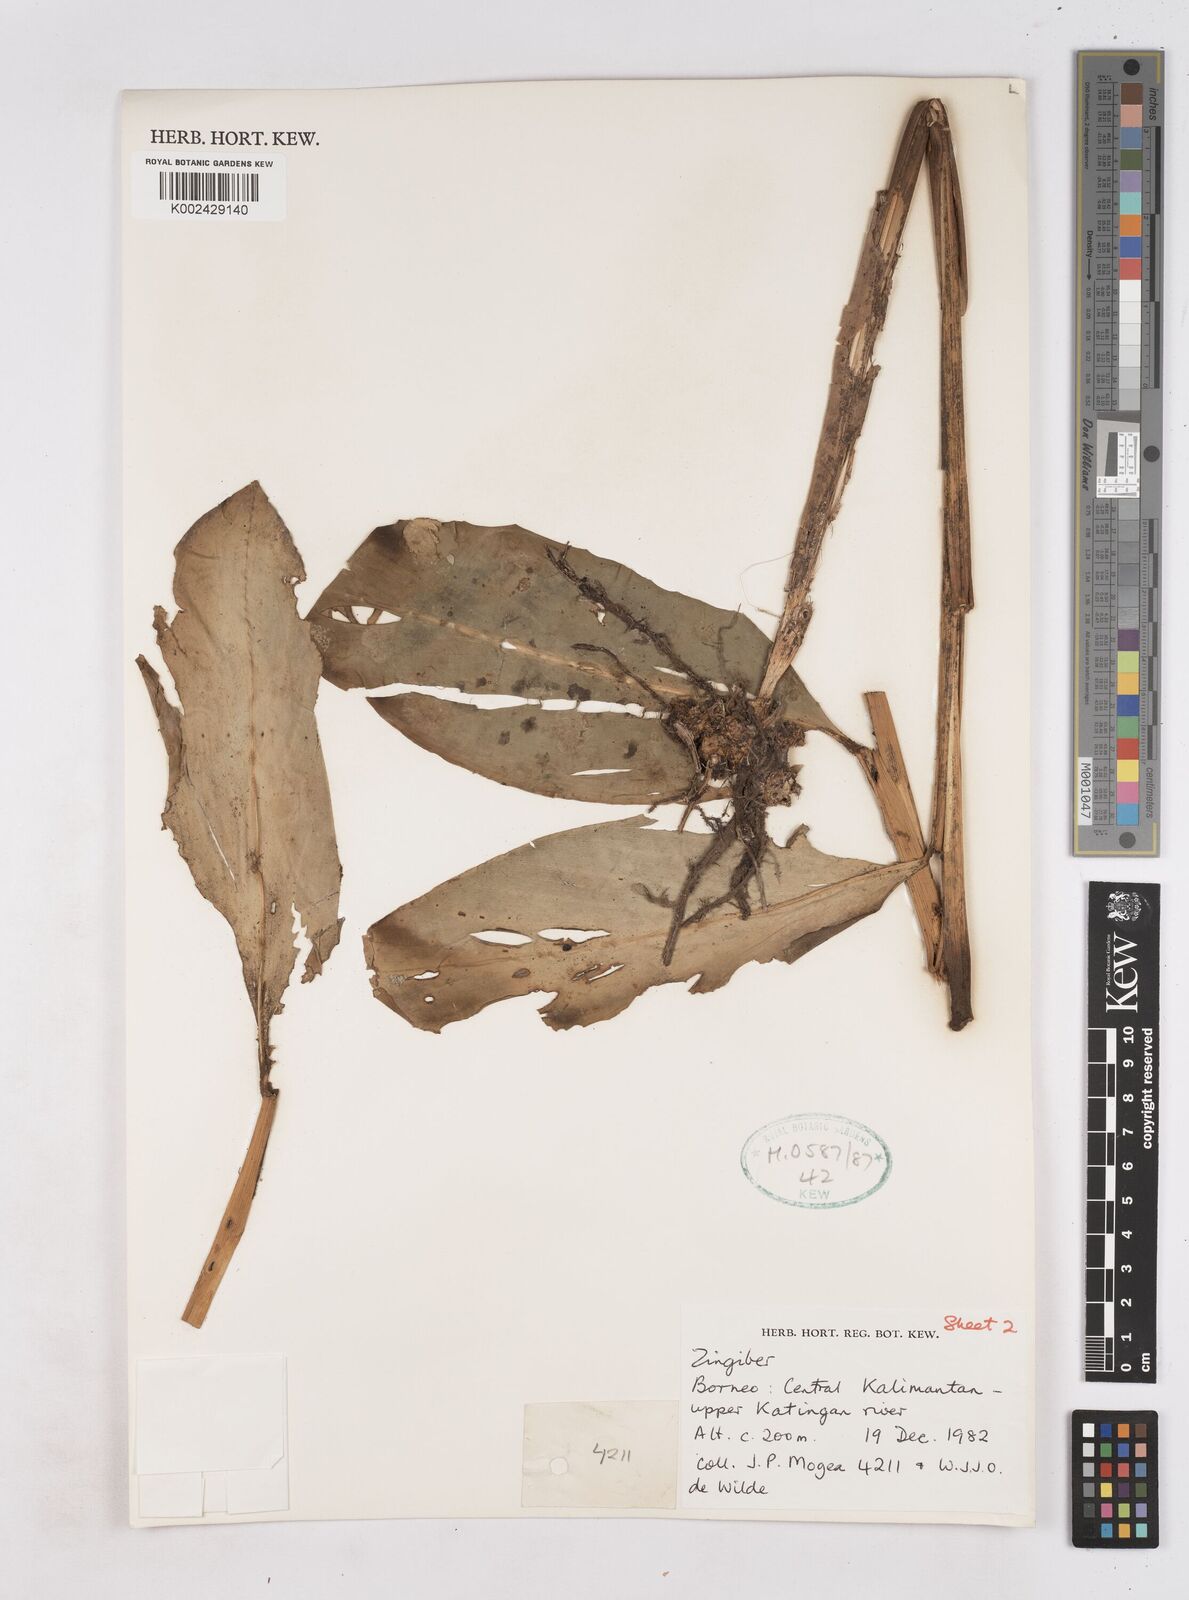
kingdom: Plantae
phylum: Tracheophyta
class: Liliopsida
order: Zingiberales
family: Zingiberaceae
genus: Zingiber
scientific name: Zingiber
